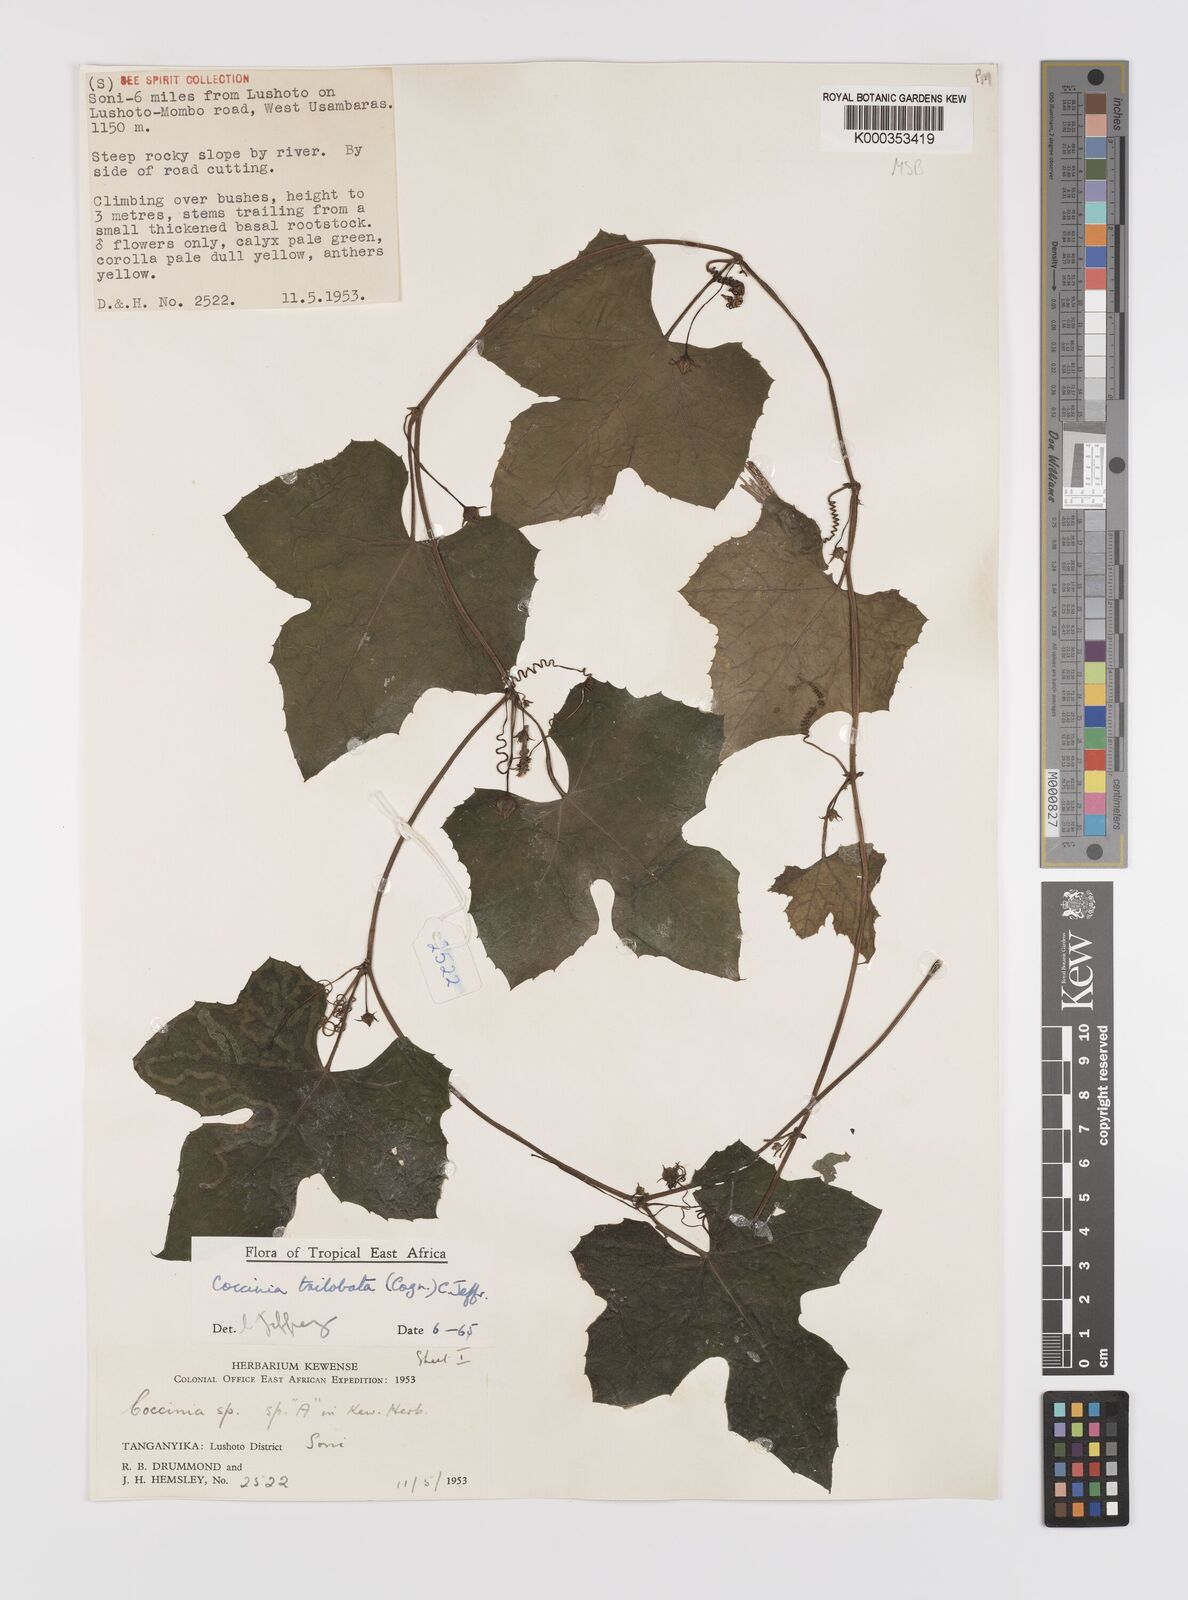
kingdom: Plantae
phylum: Tracheophyta
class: Magnoliopsida
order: Cucurbitales
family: Cucurbitaceae
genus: Coccinia
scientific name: Coccinia trilobata
